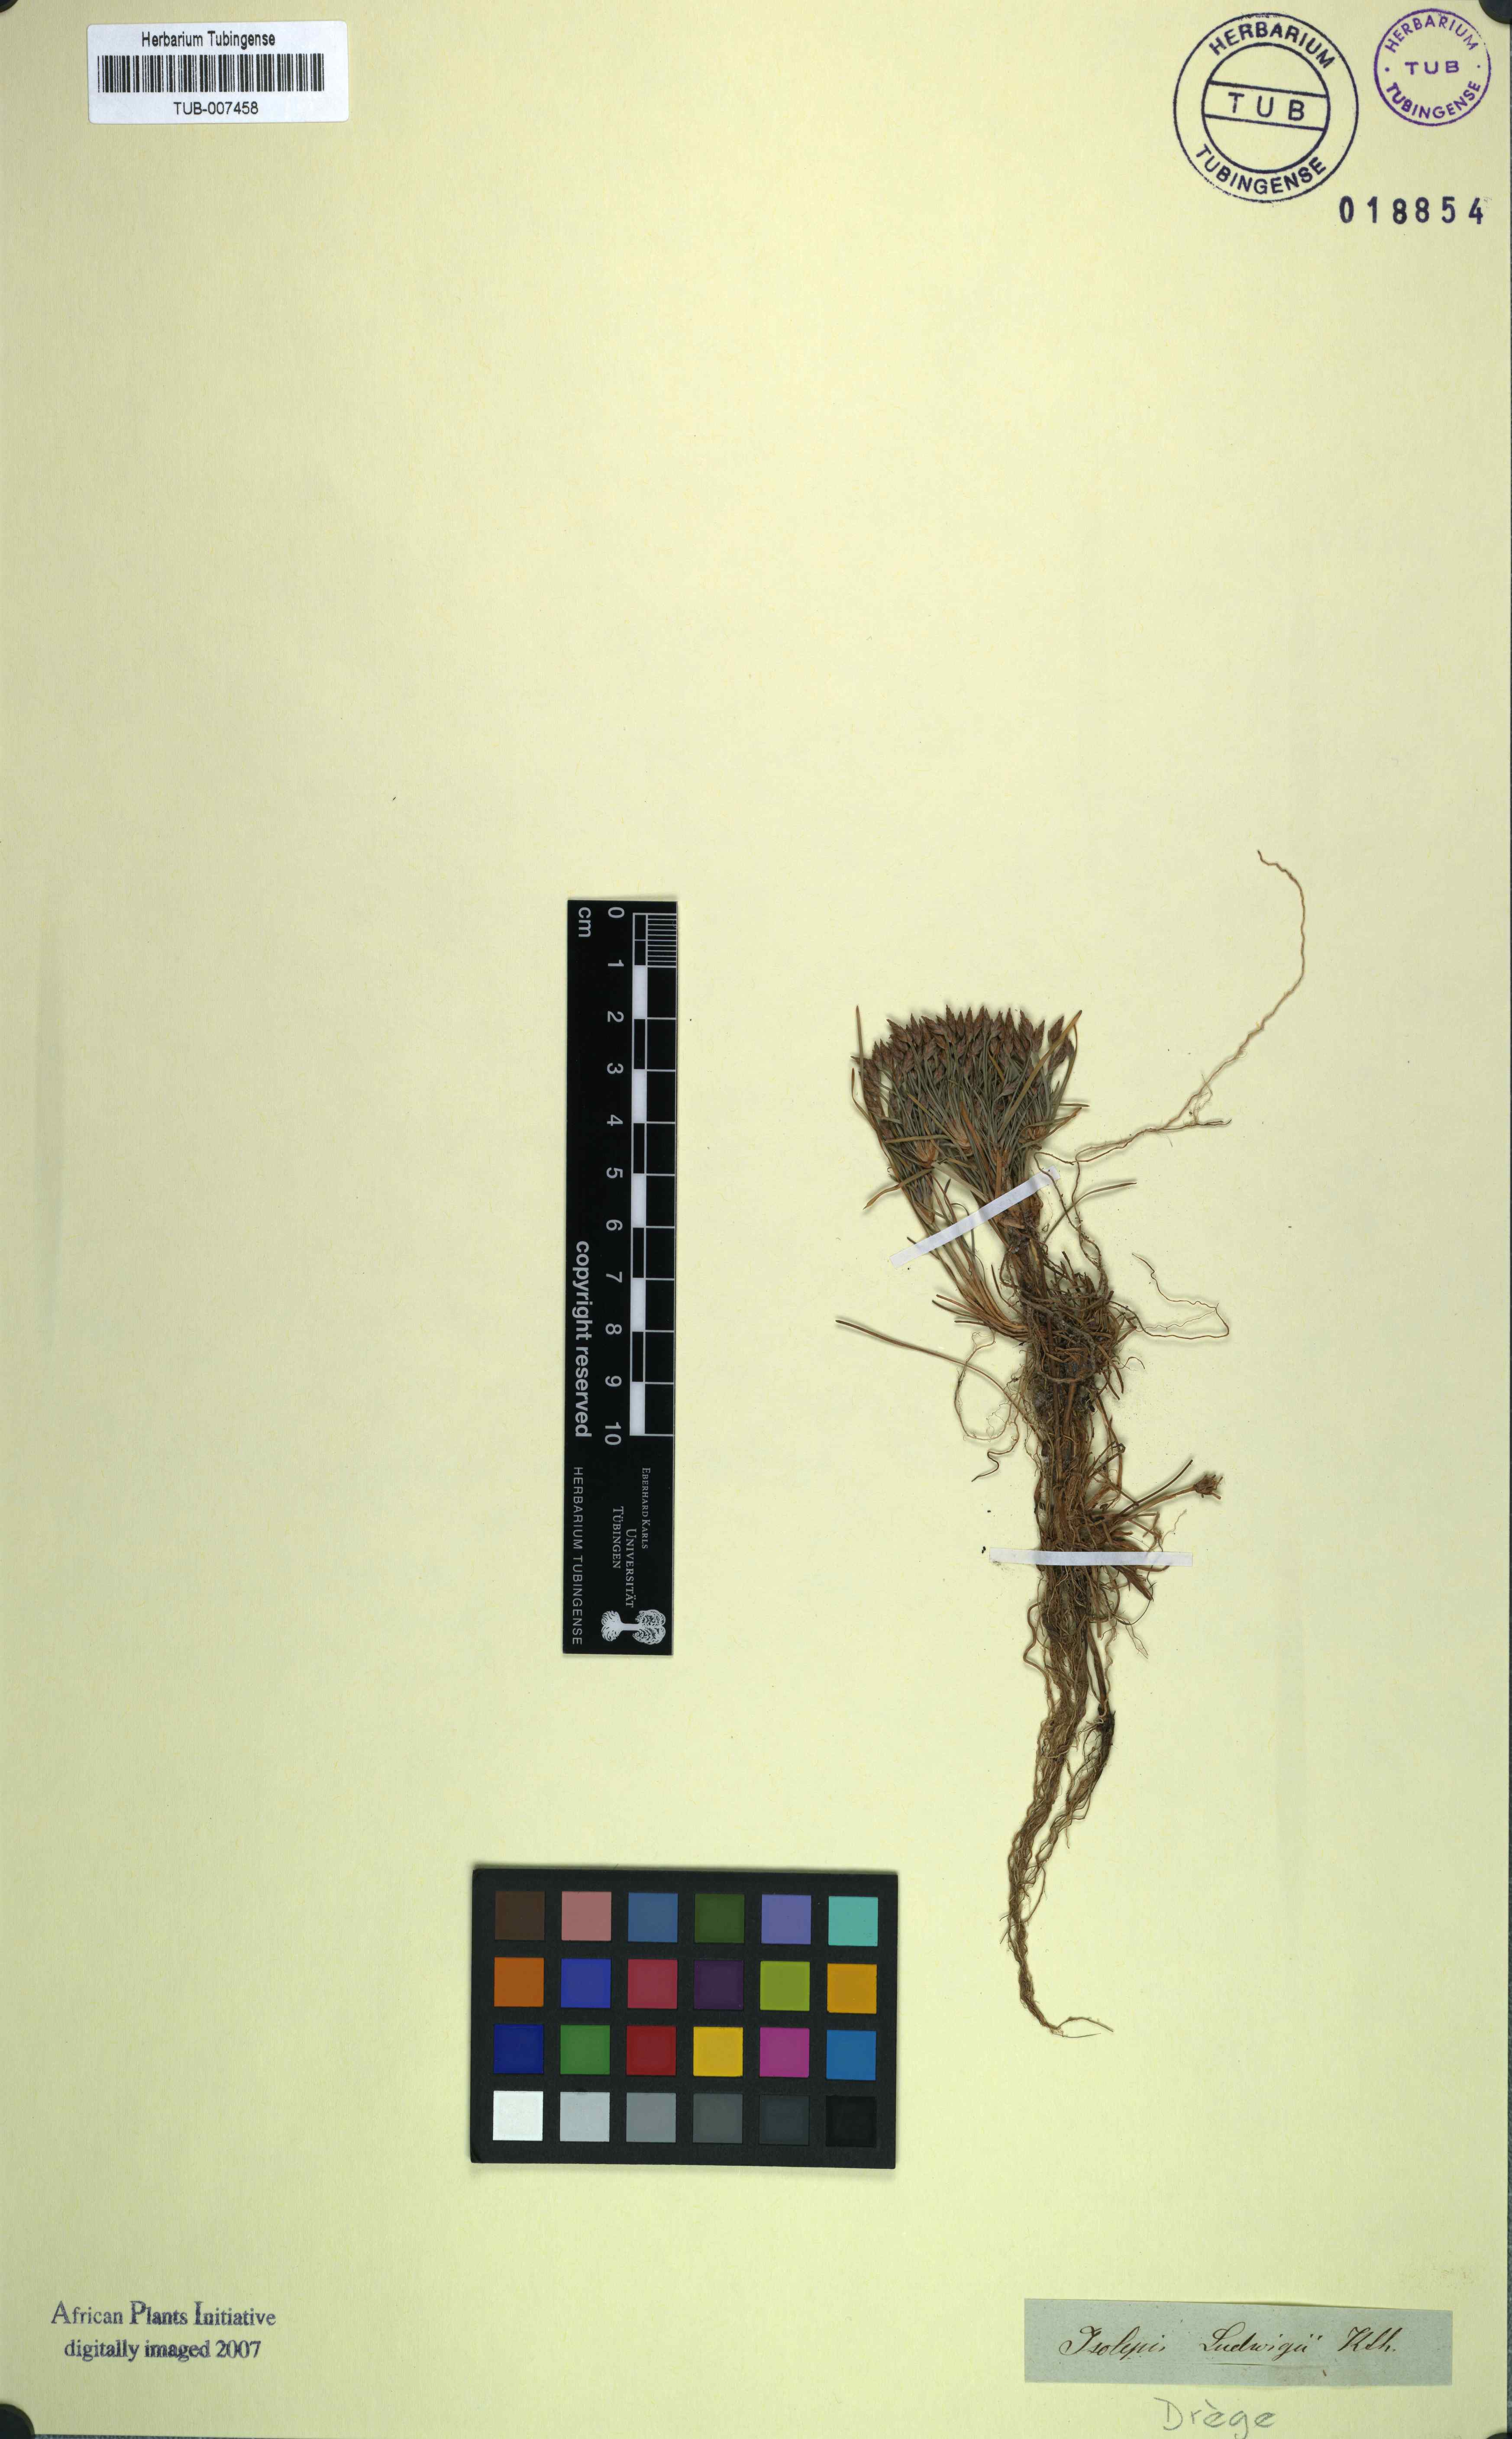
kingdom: Plantae
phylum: Tracheophyta
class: Liliopsida
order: Poales
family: Cyperaceae
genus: Isolepis
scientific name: Isolepis ludwigii
